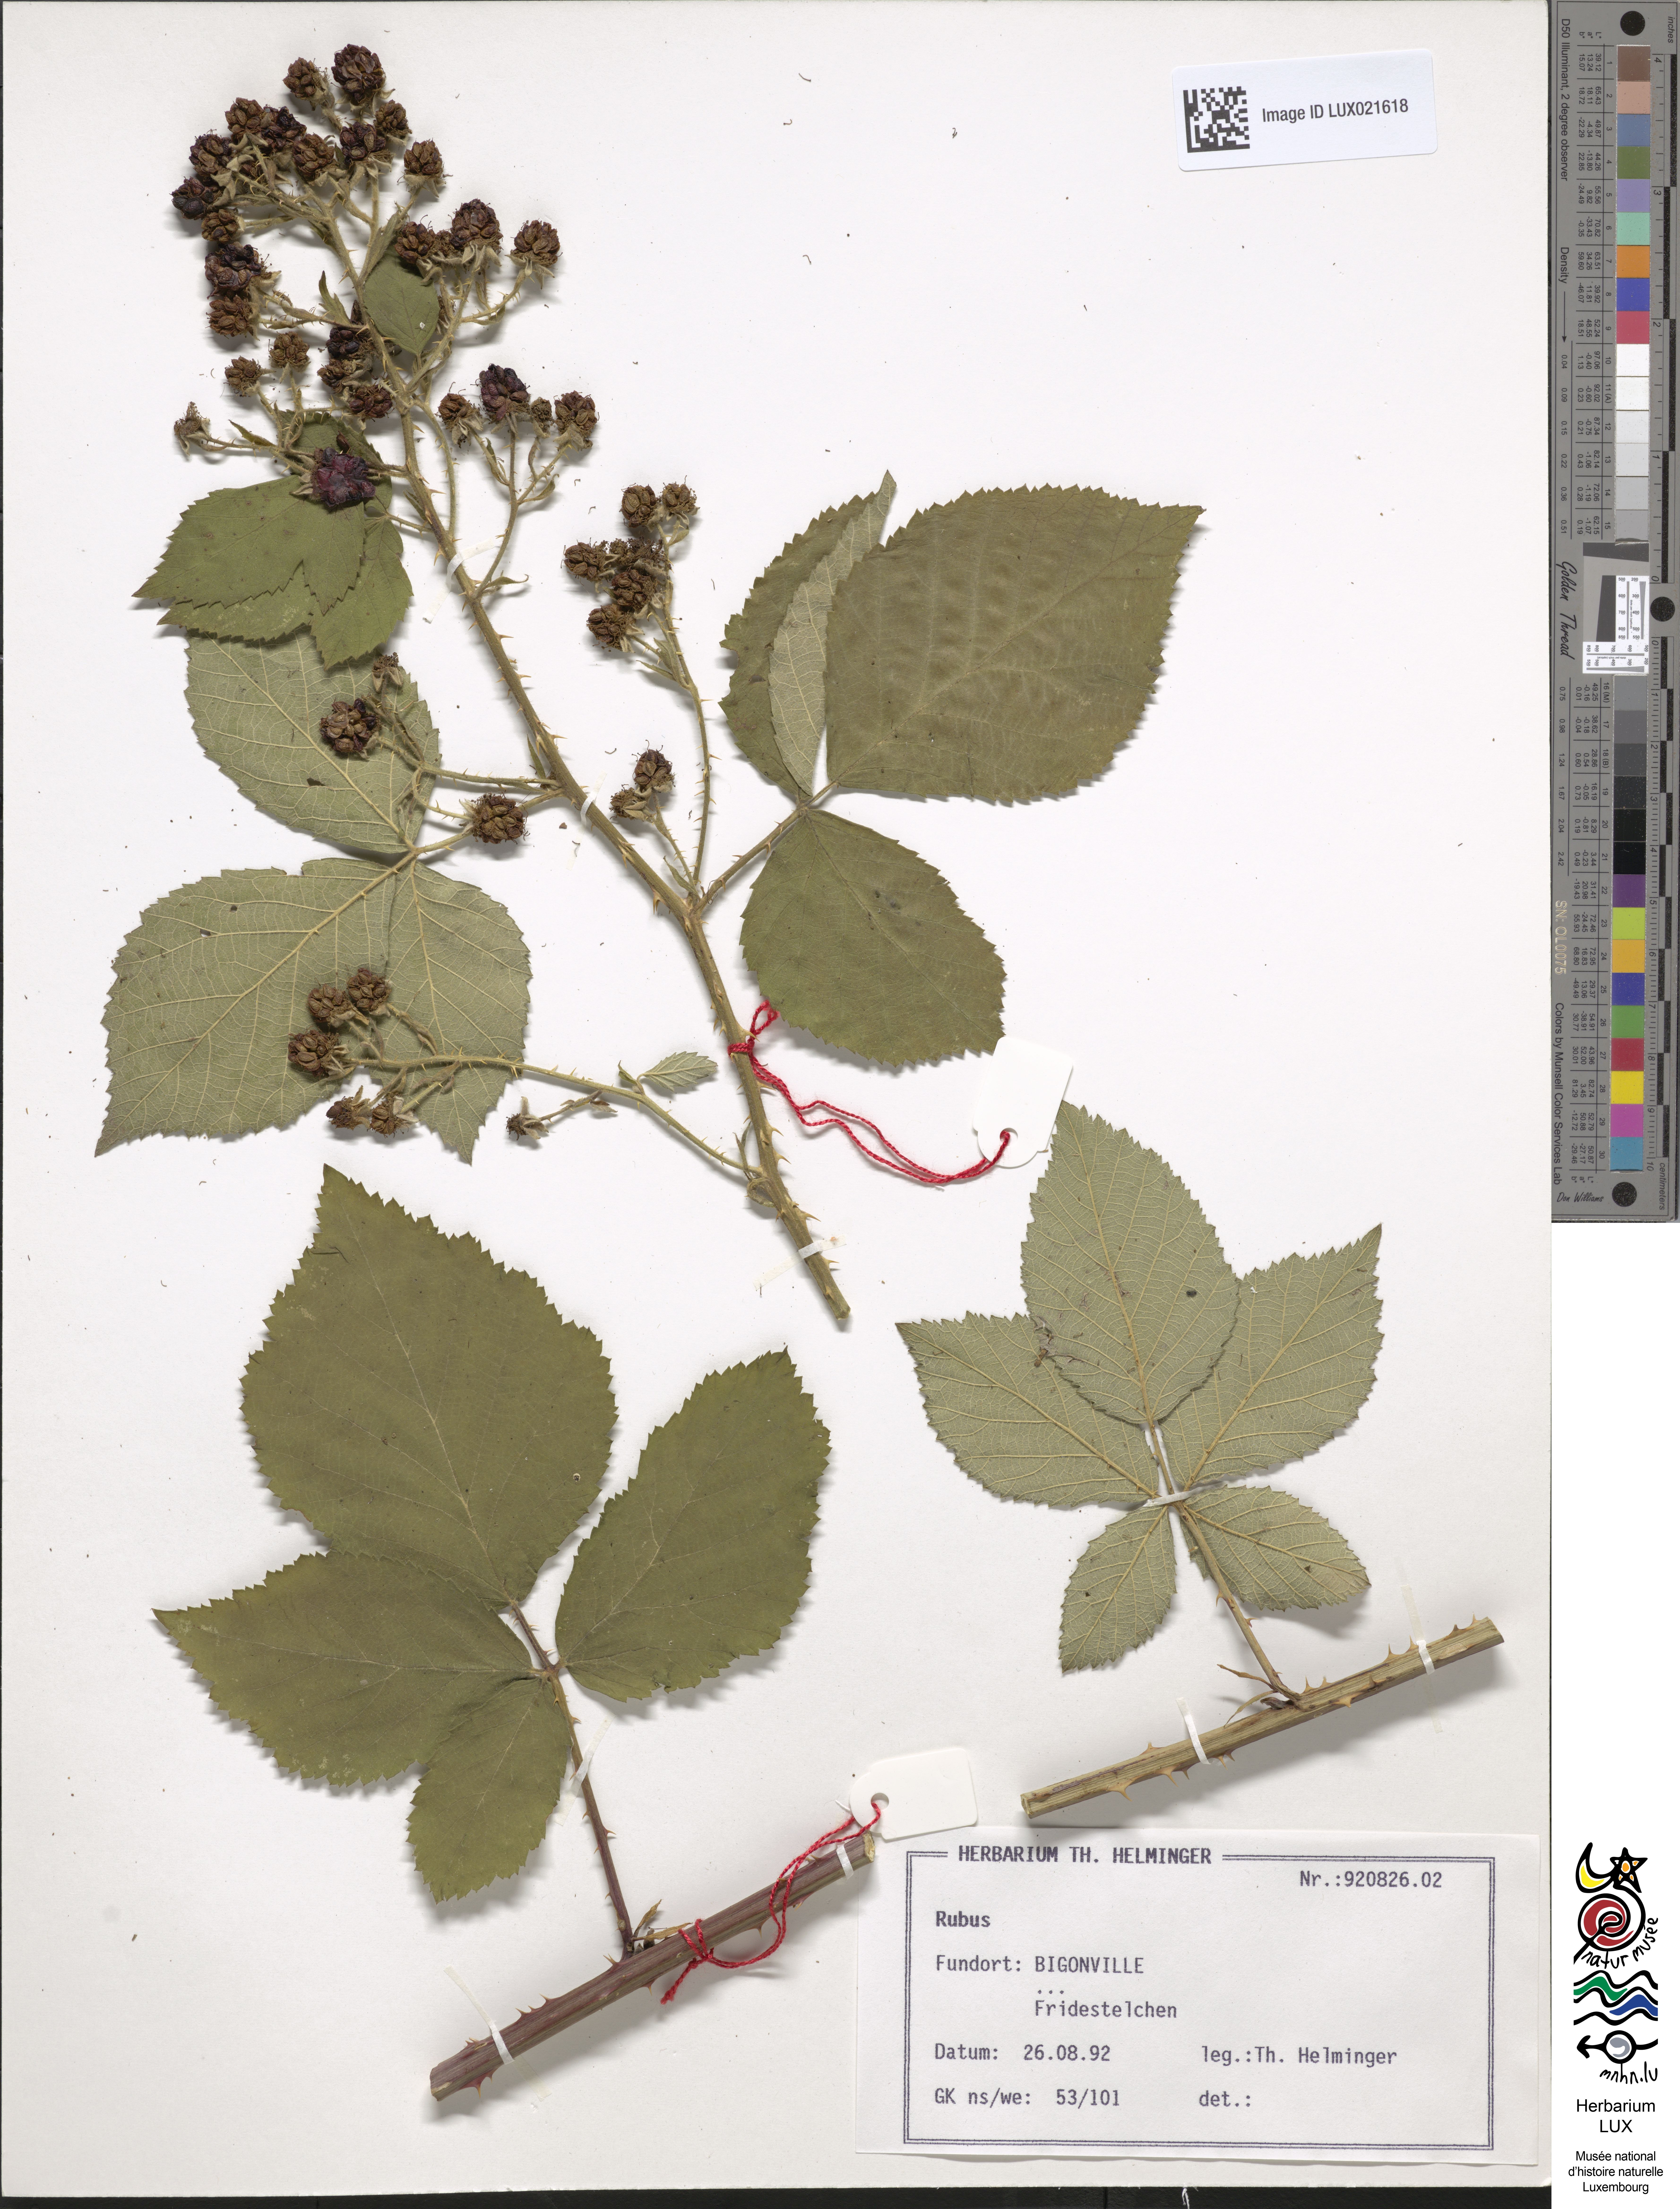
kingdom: Plantae
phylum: Tracheophyta
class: Magnoliopsida
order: Rosales
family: Rosaceae
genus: Rubus
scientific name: Rubus
